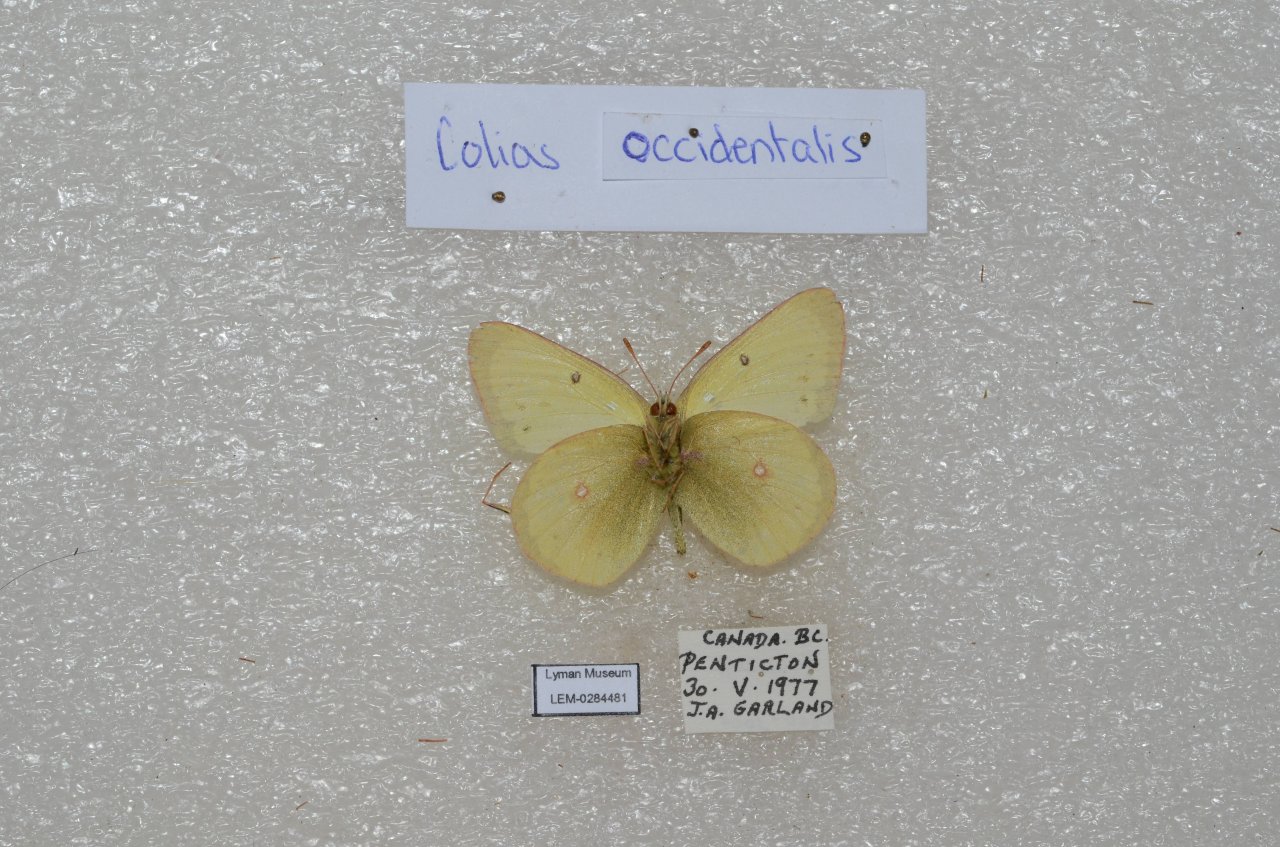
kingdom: Animalia
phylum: Arthropoda
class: Insecta
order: Lepidoptera
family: Pieridae
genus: Colias
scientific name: Colias occidentalis
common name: Western Sulphur
